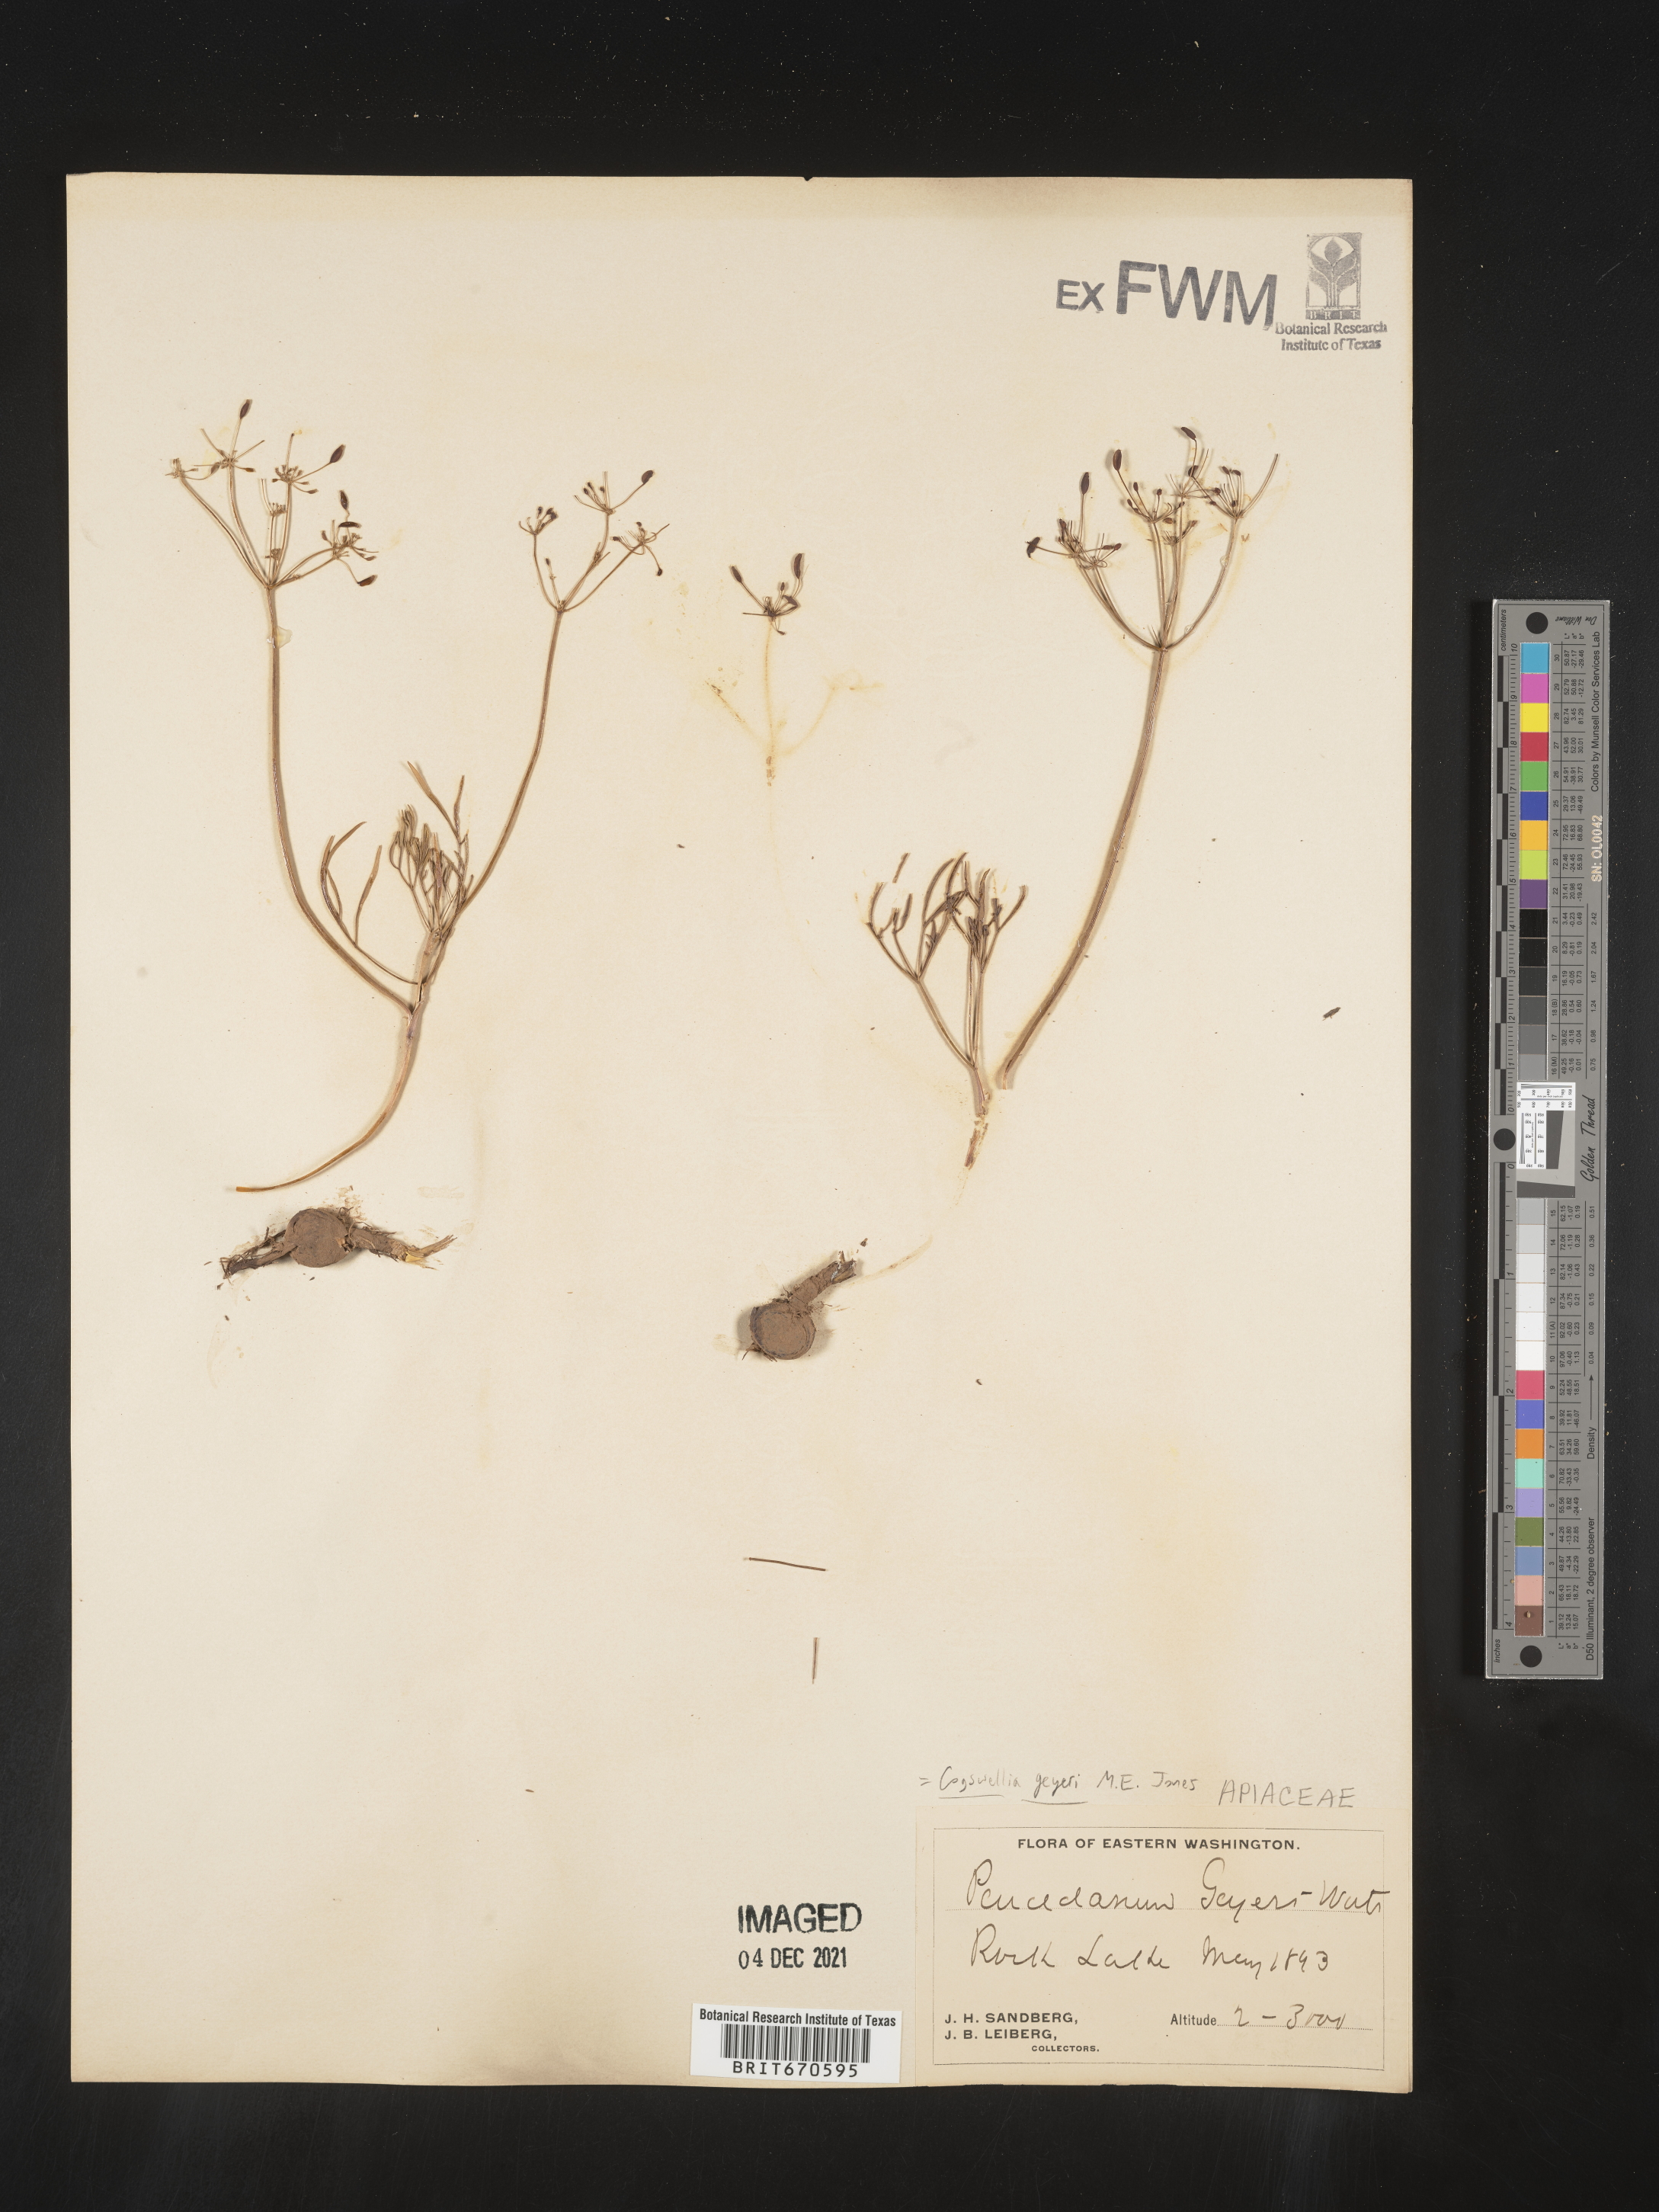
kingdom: Plantae
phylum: Tracheophyta
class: Magnoliopsida
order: Apiales
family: Apiaceae
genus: Lomatium
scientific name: Lomatium geyeri
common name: Geyer's biscuitroot
